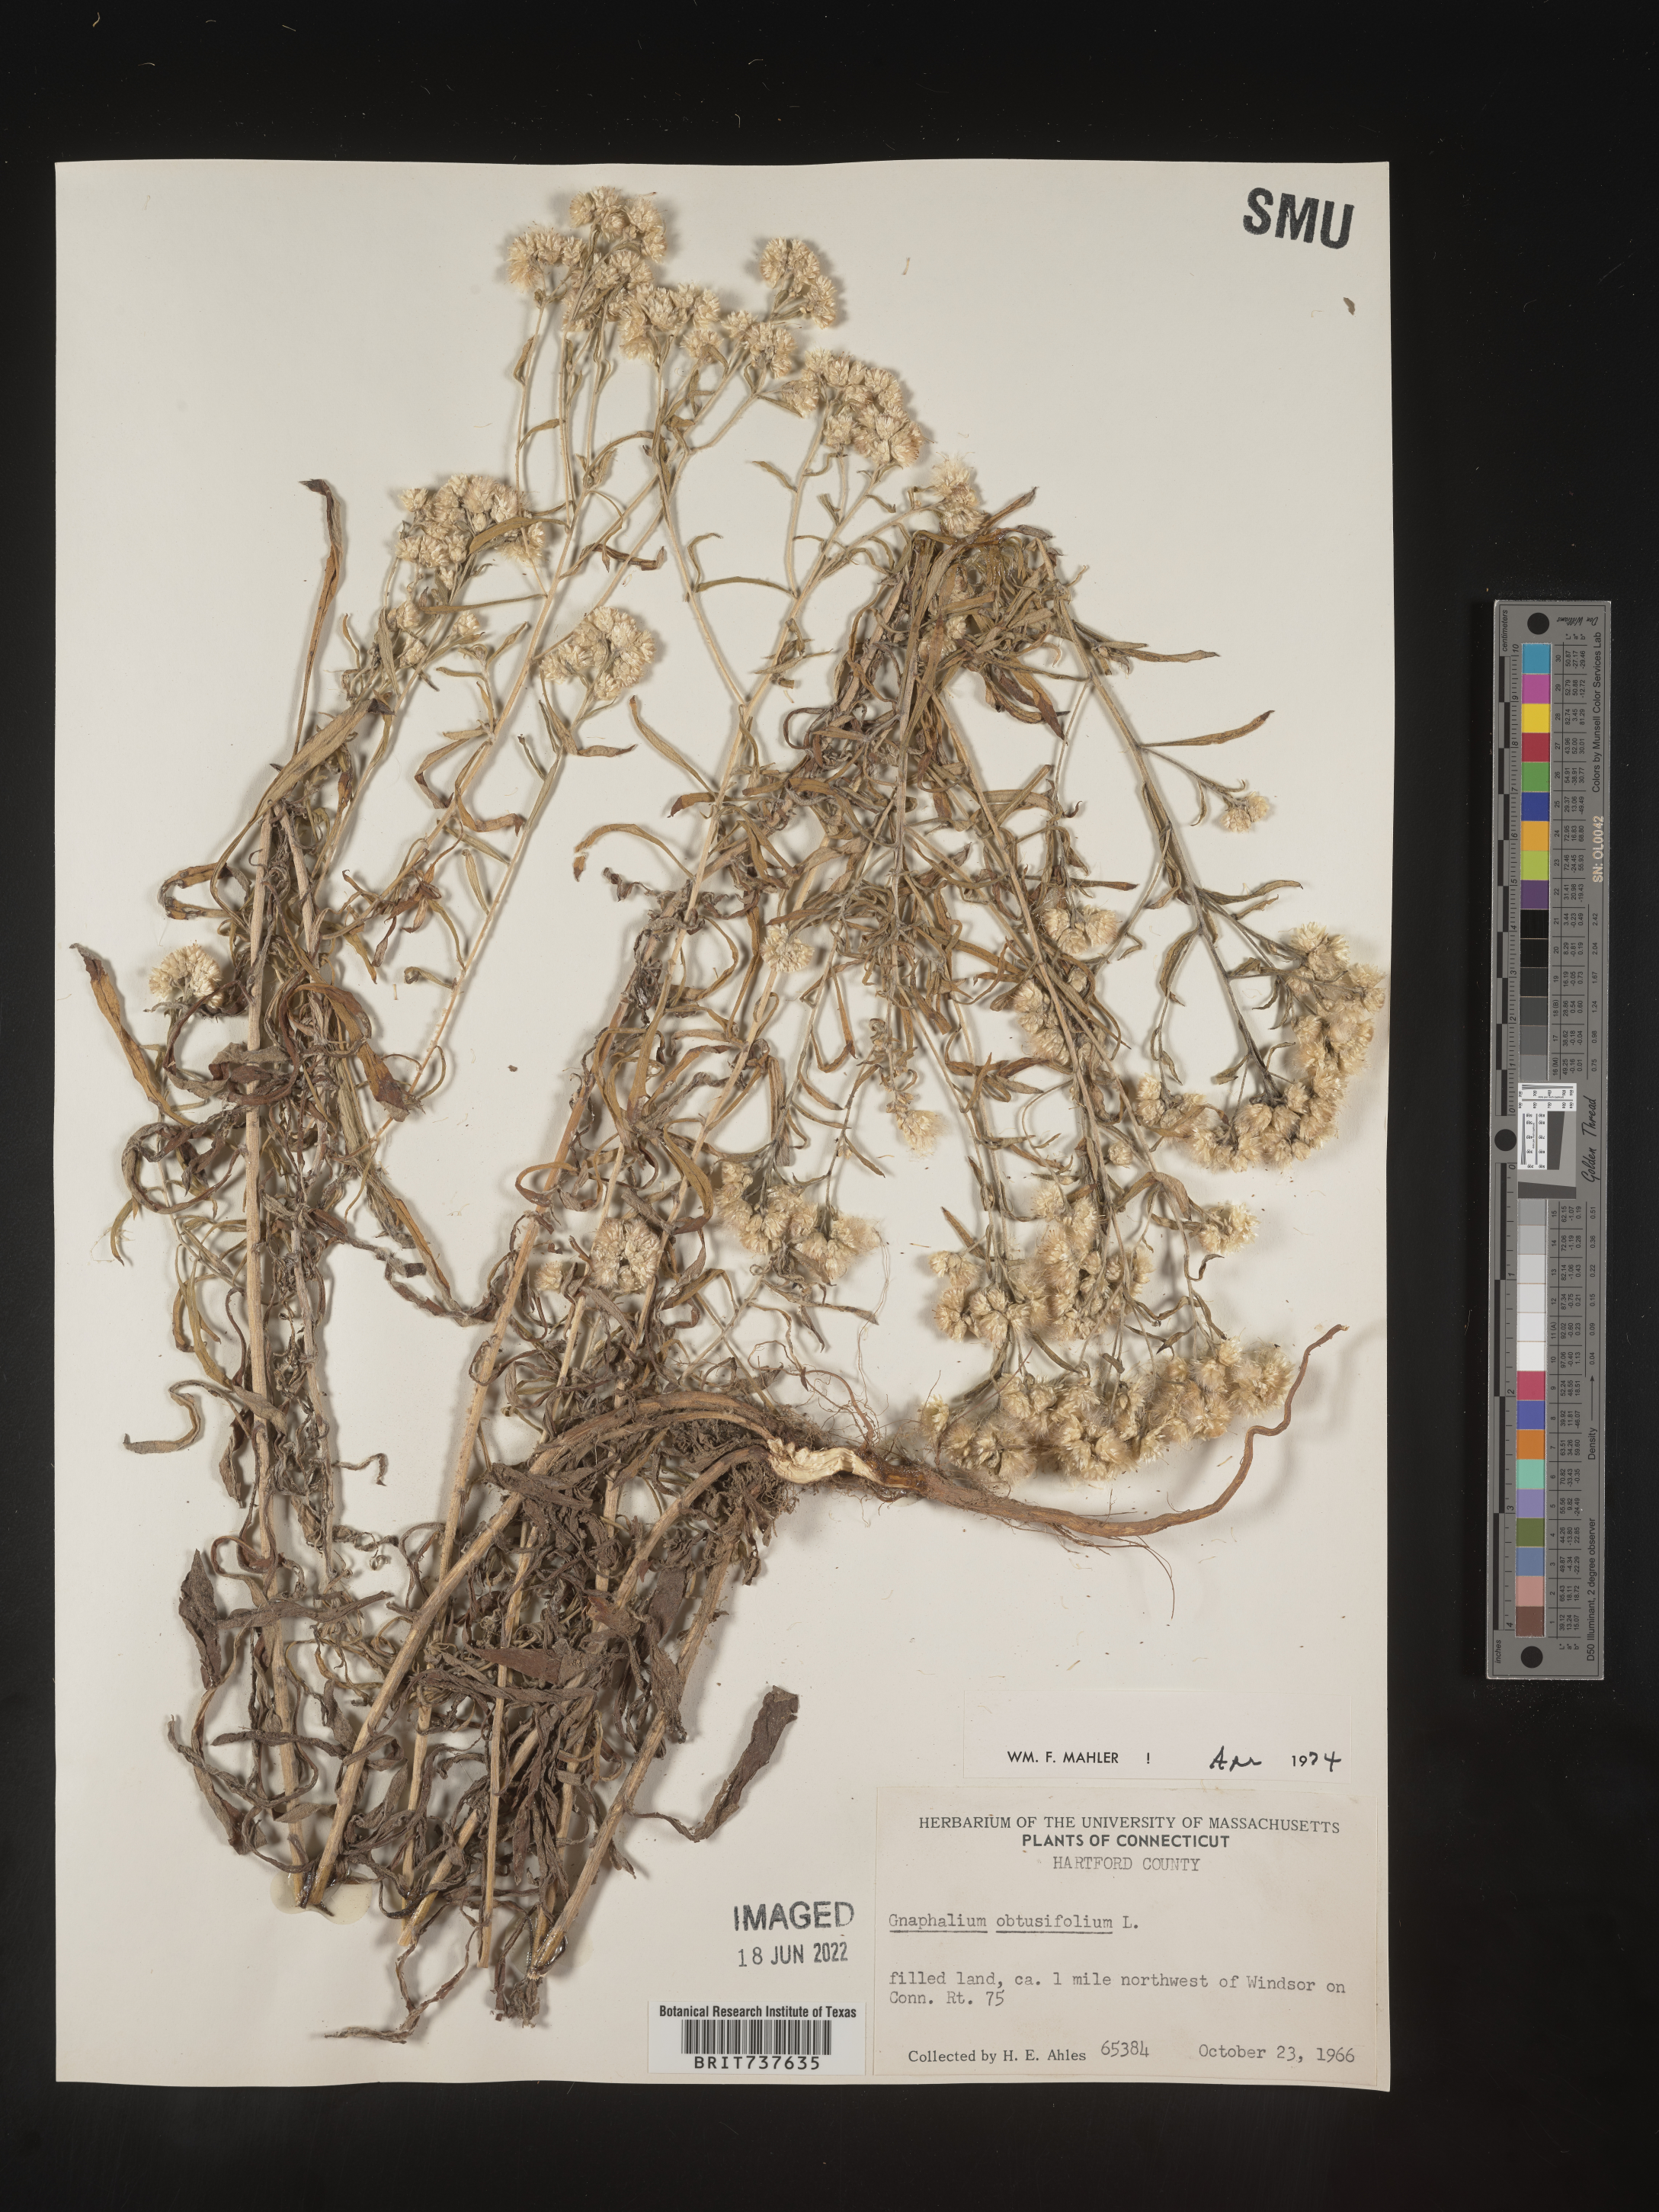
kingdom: Plantae
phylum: Tracheophyta
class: Magnoliopsida
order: Asterales
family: Asteraceae
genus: Pseudognaphalium
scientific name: Pseudognaphalium obtusifolium
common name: Eastern rabbit-tobacco
